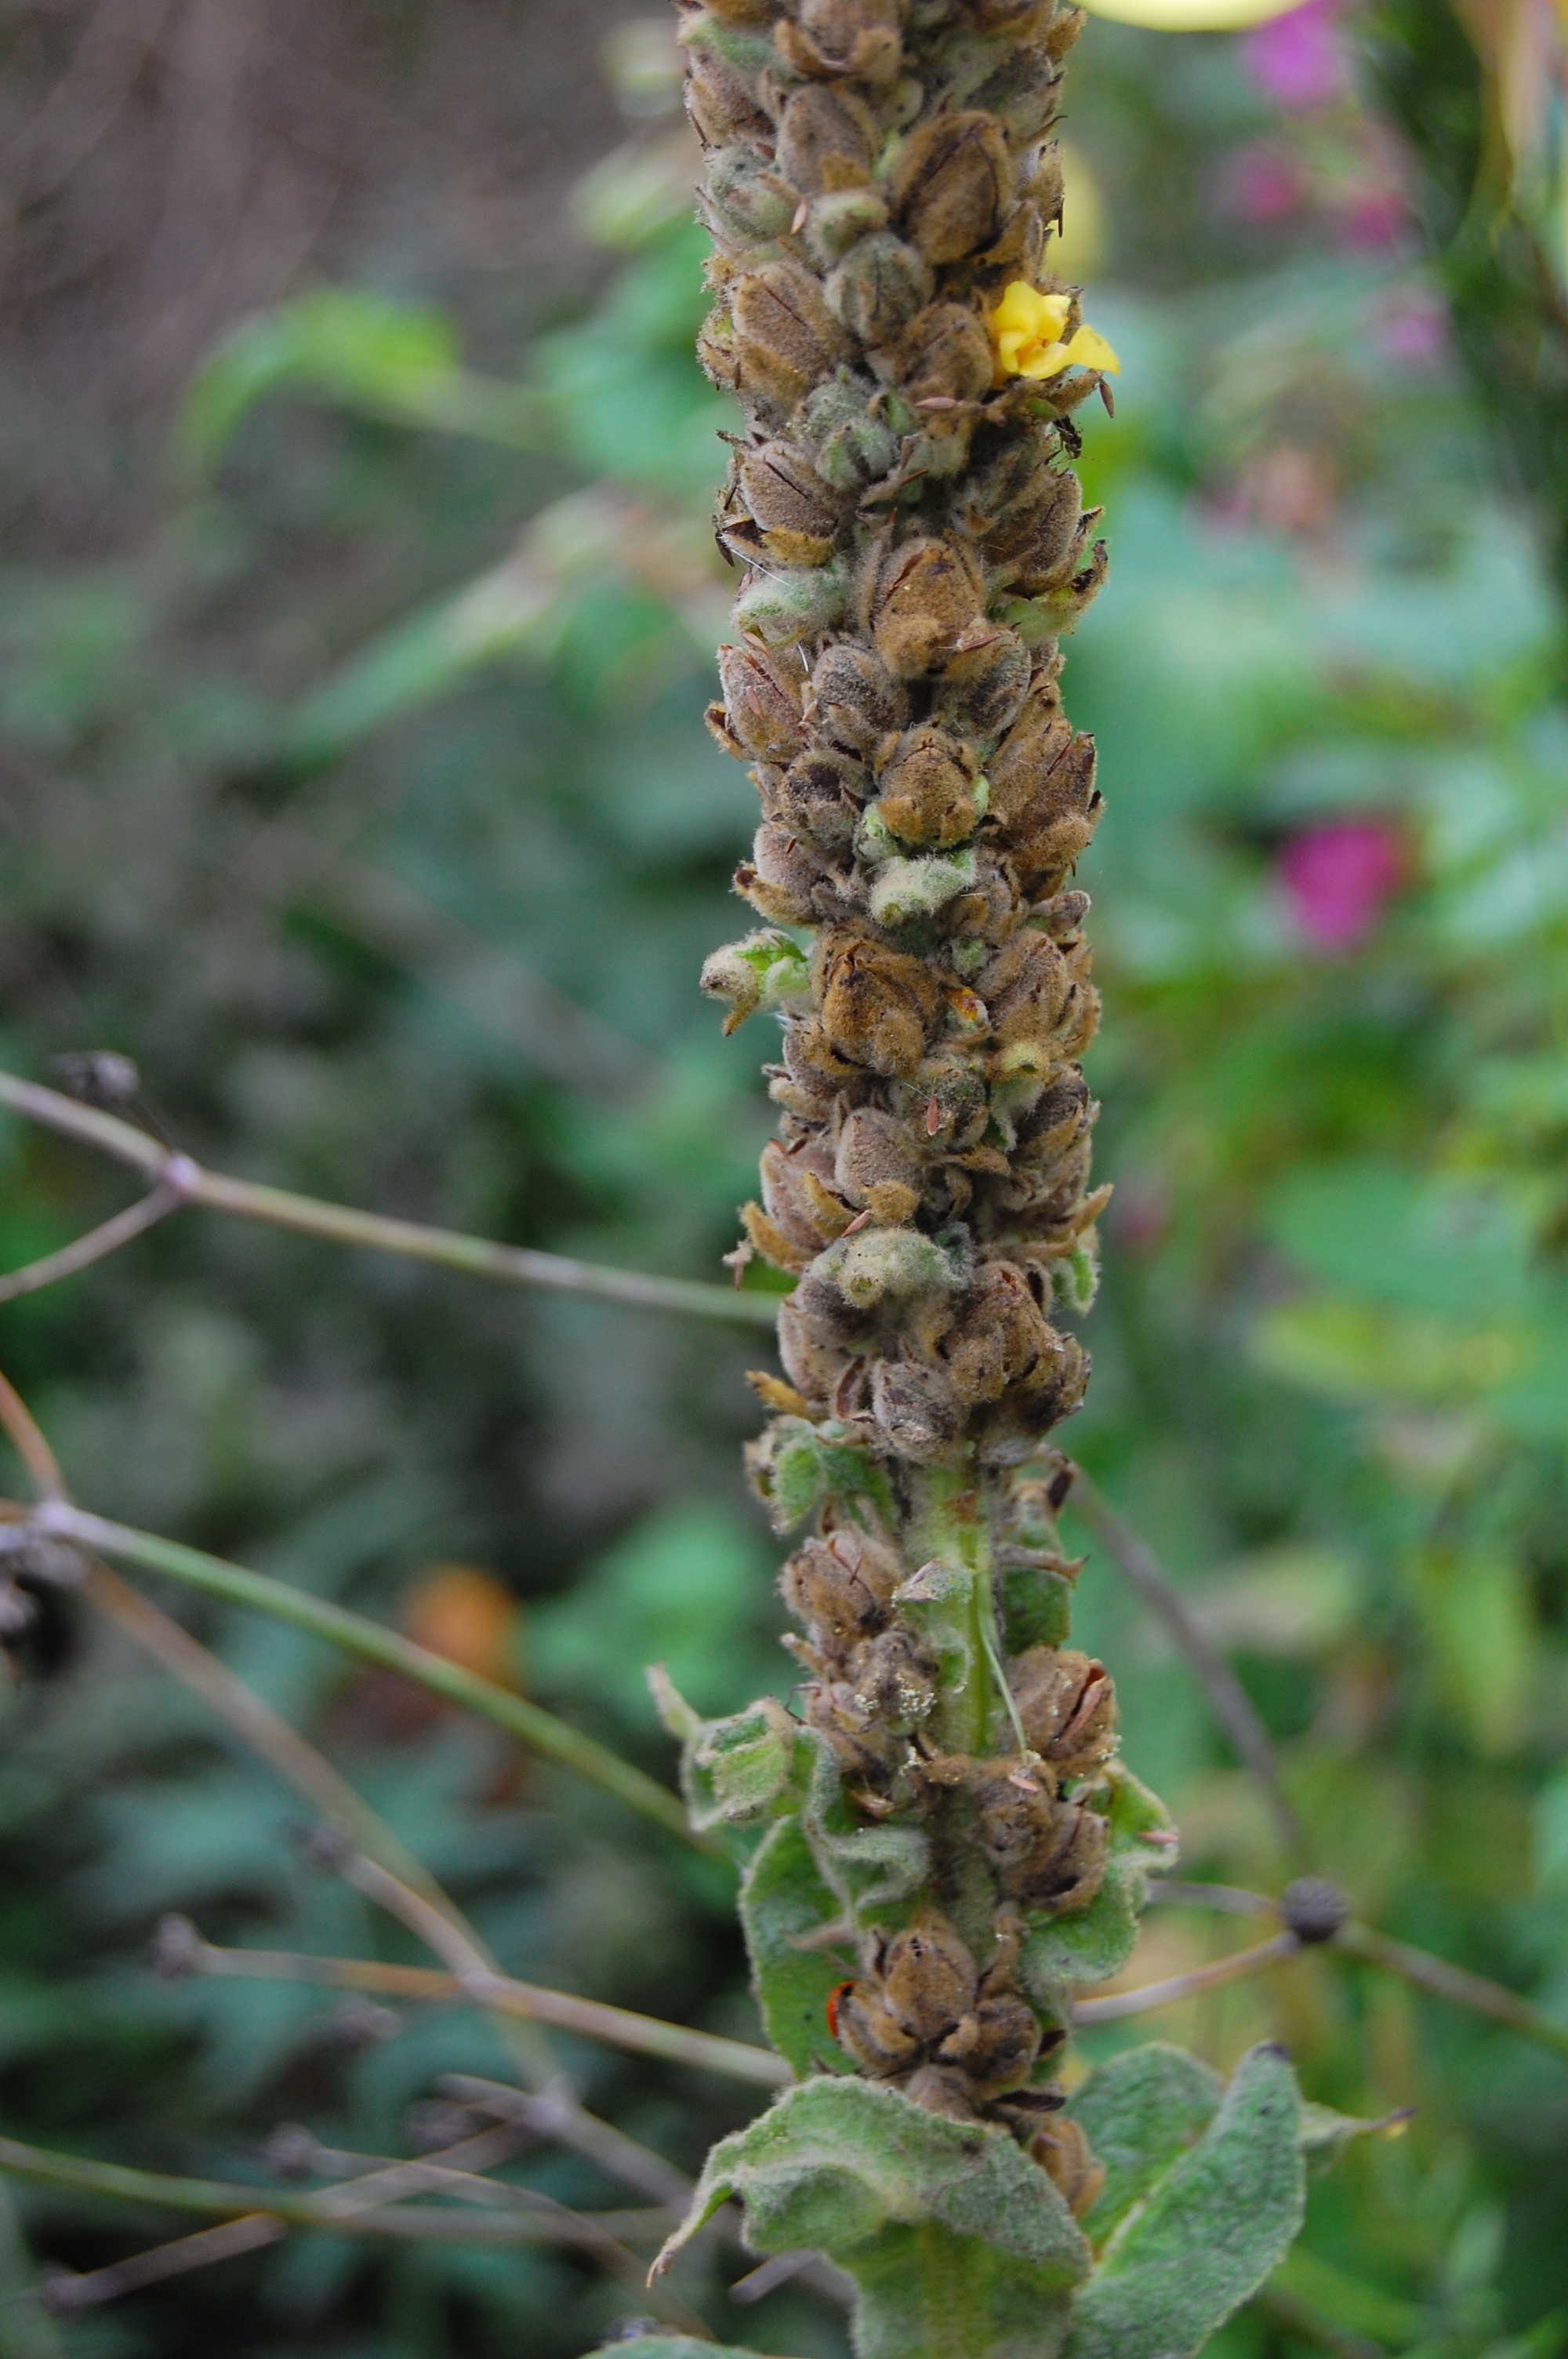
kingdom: Plantae
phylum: Tracheophyta
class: Magnoliopsida
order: Lamiales
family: Scrophulariaceae
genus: Verbascum
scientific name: Verbascum thapsus
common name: Common mullein
